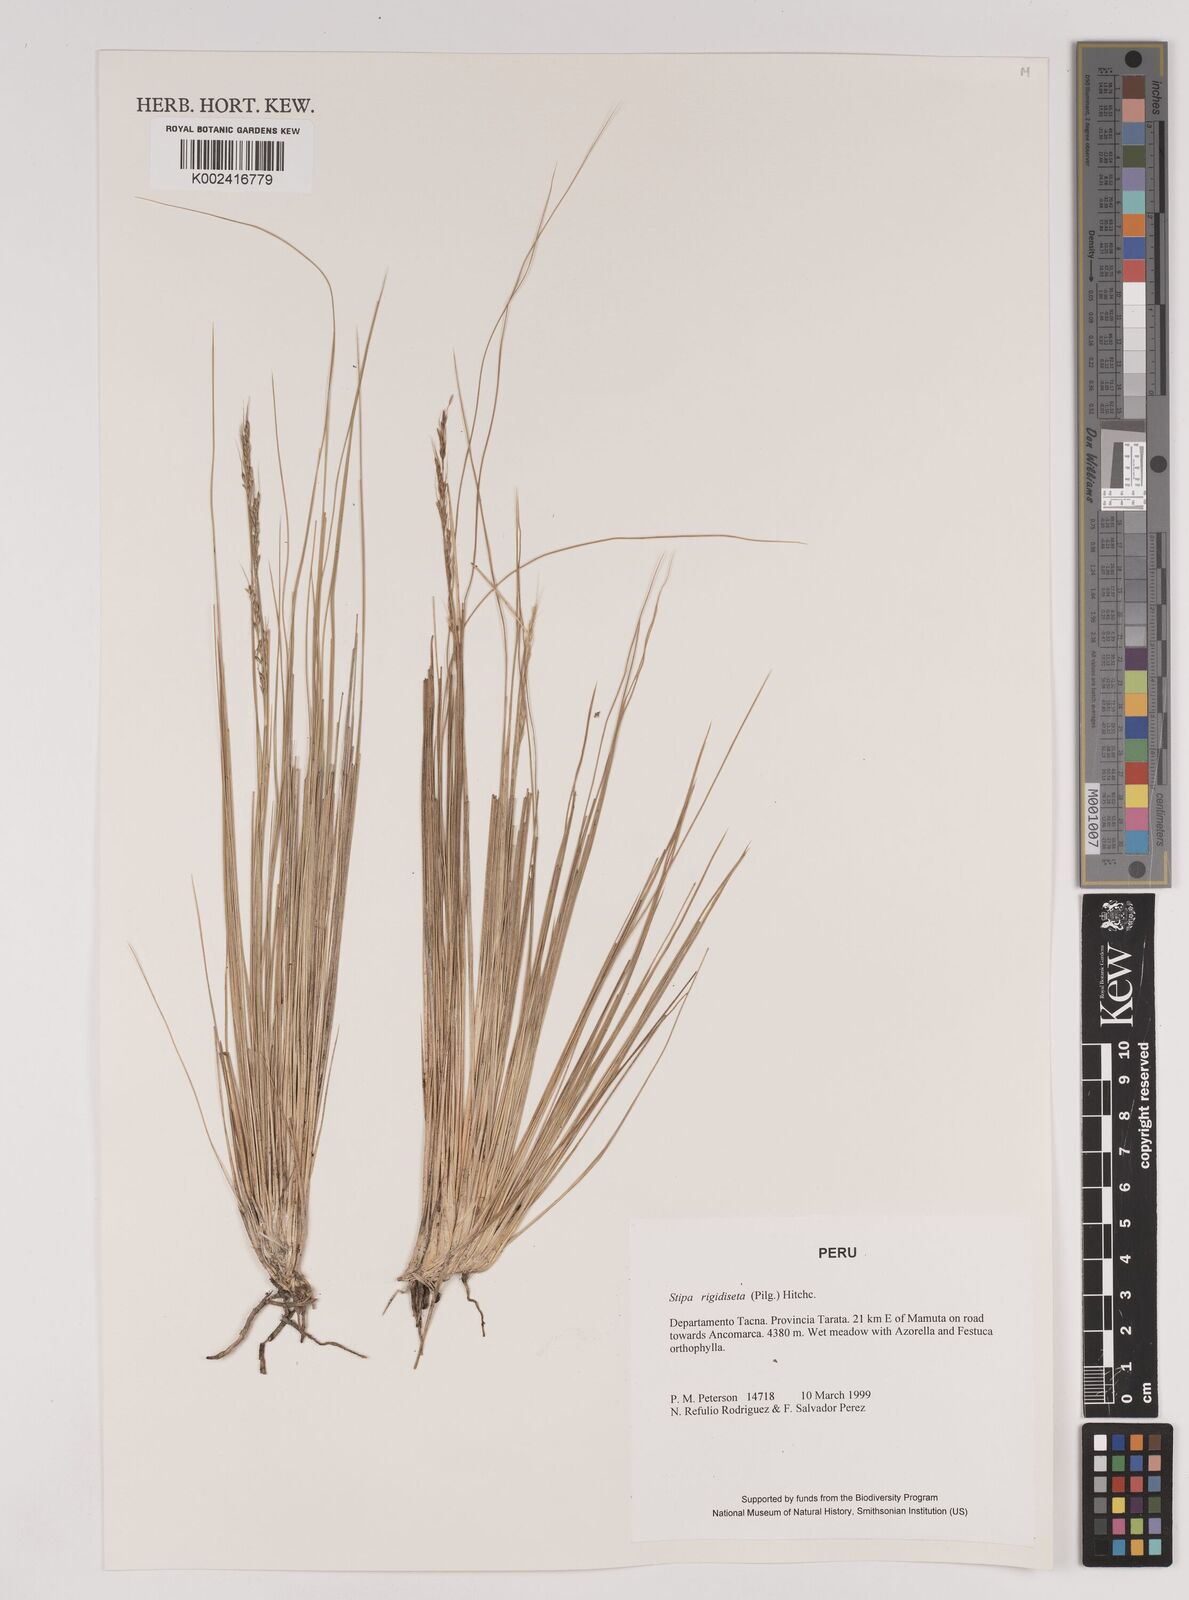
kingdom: Plantae
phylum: Tracheophyta
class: Liliopsida
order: Poales
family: Poaceae
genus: Stipa
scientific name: Stipa rigidiseta
